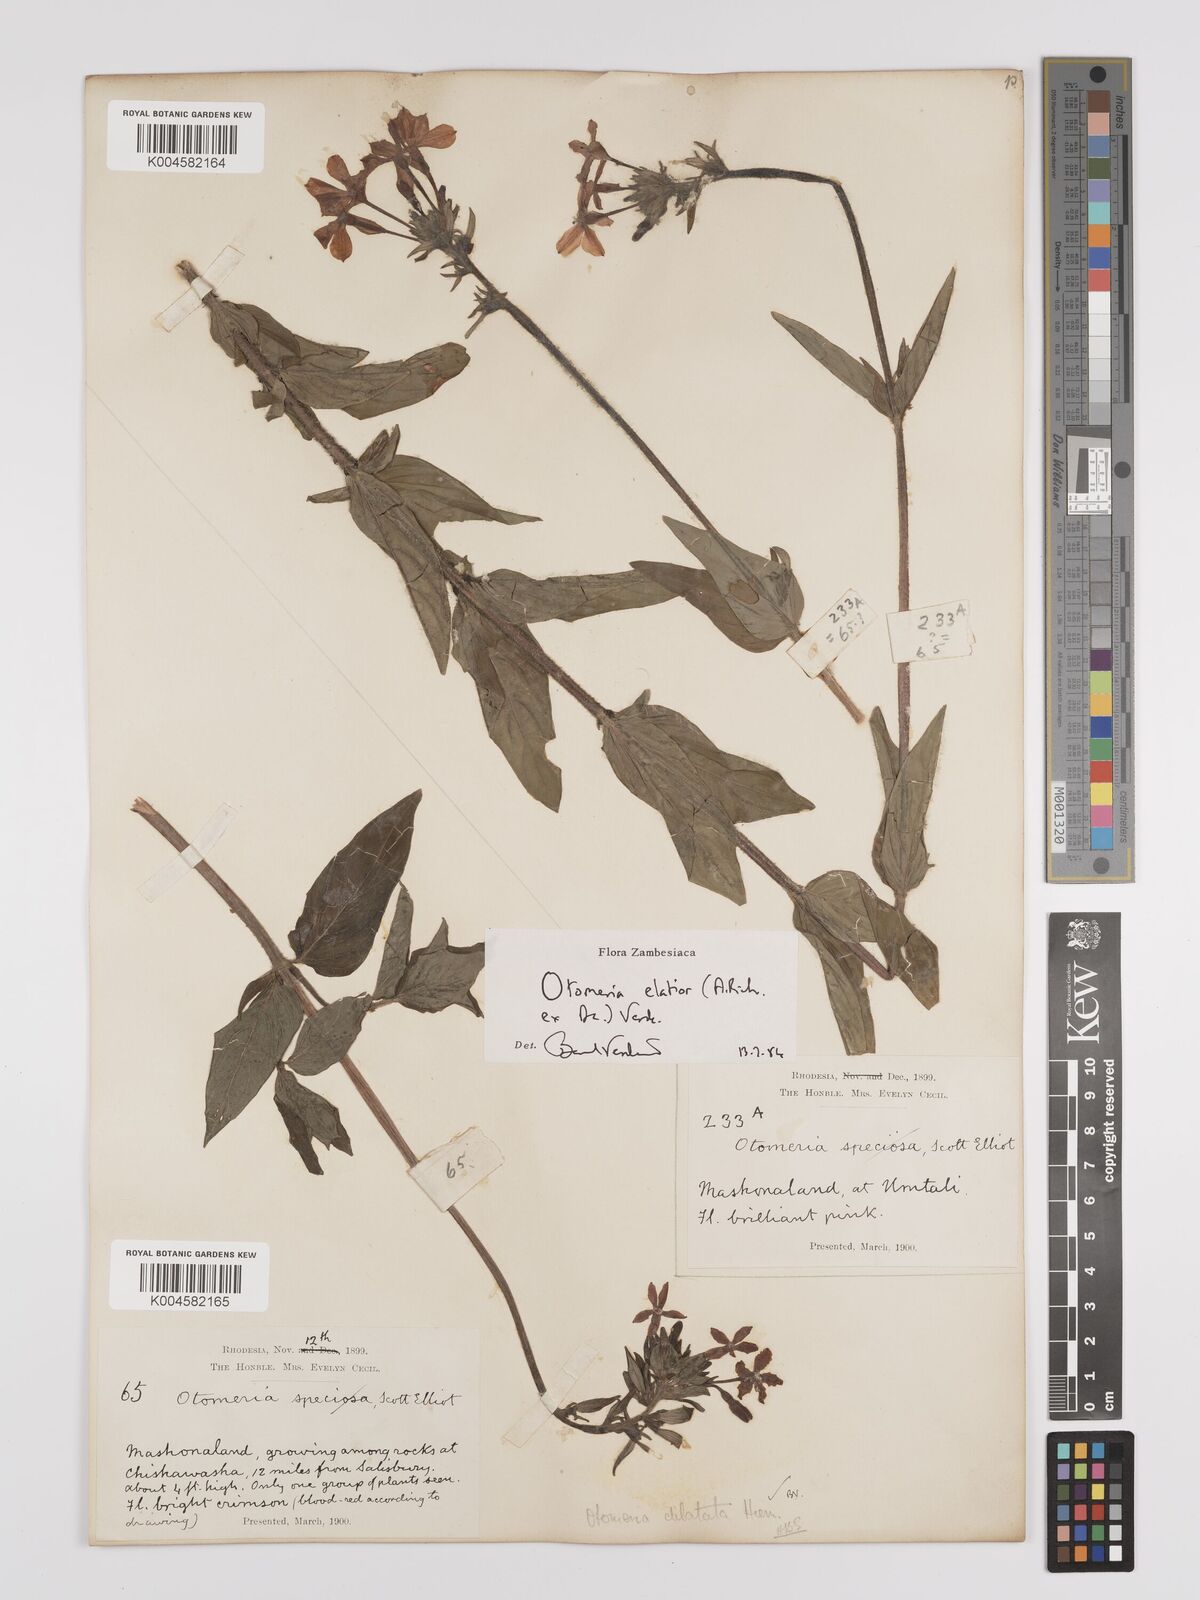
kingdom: Plantae
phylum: Tracheophyta
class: Magnoliopsida
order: Gentianales
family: Rubiaceae
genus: Otomeria
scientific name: Otomeria elatior
